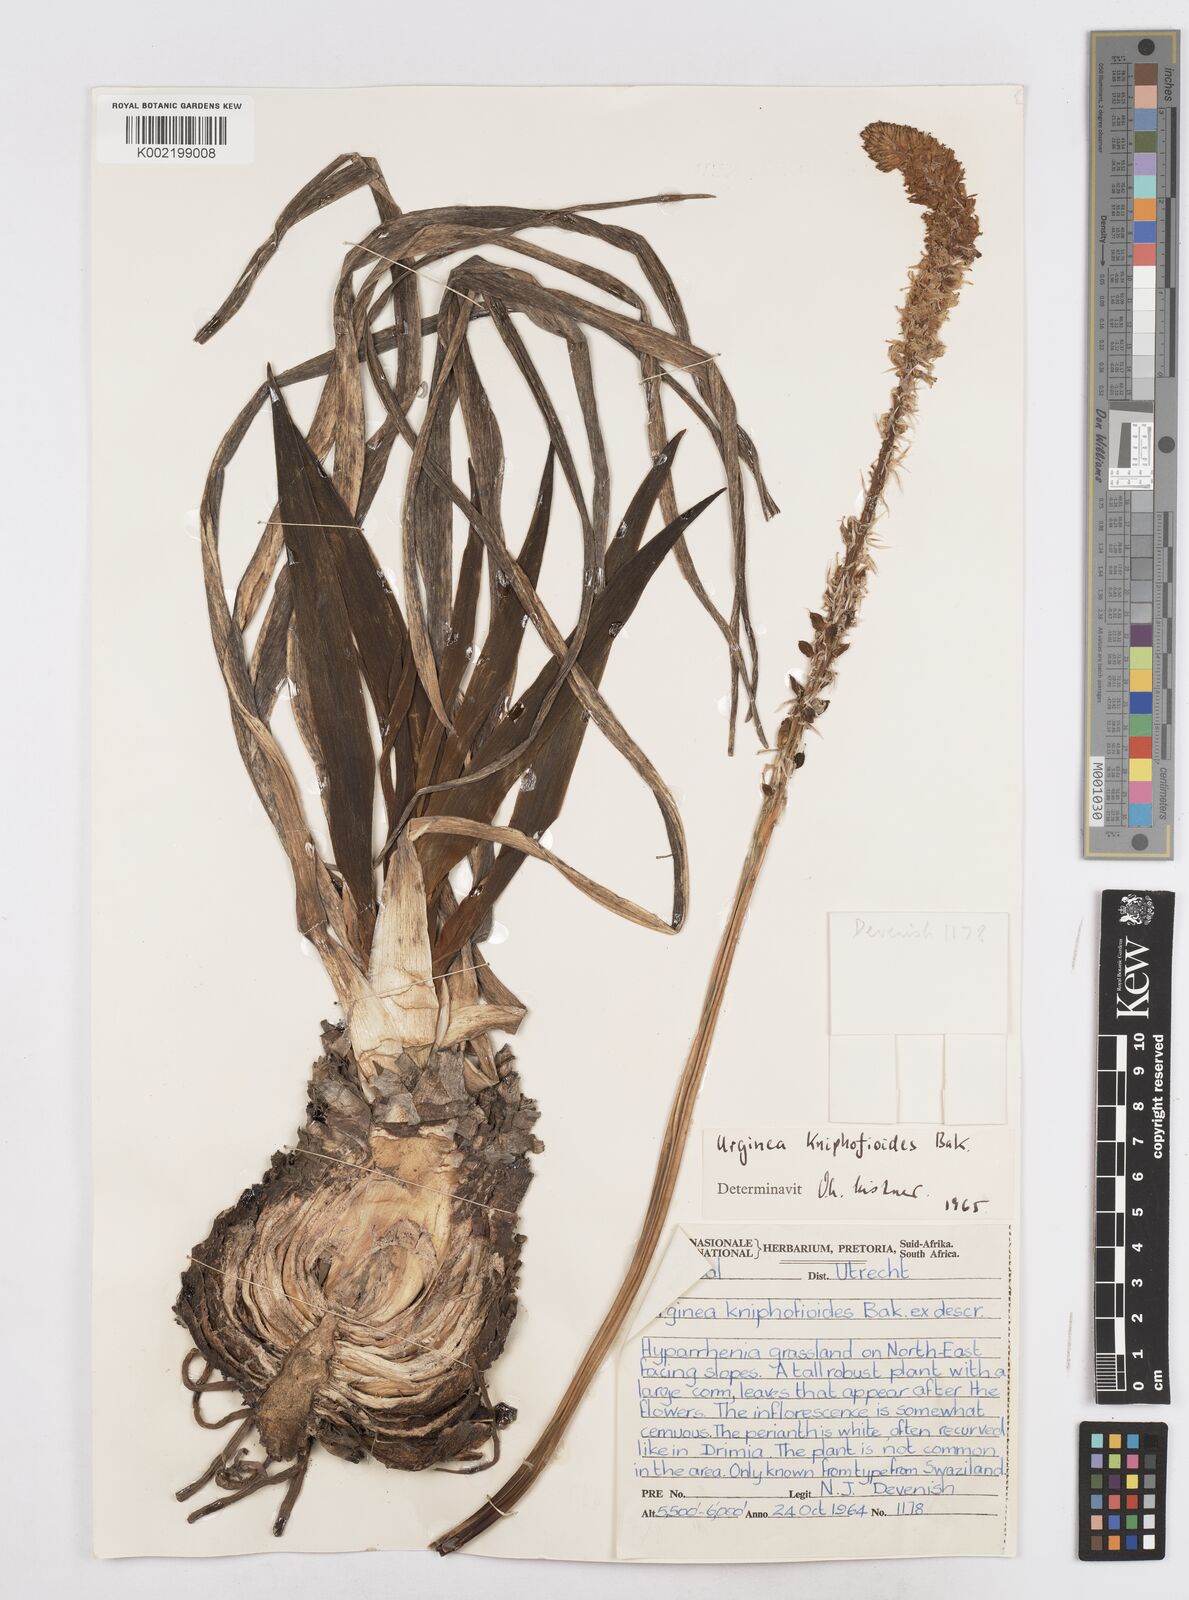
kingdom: Plantae
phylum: Tracheophyta
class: Liliopsida
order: Asparagales
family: Asparagaceae
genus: Drimia
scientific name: Drimia kniphofioides
